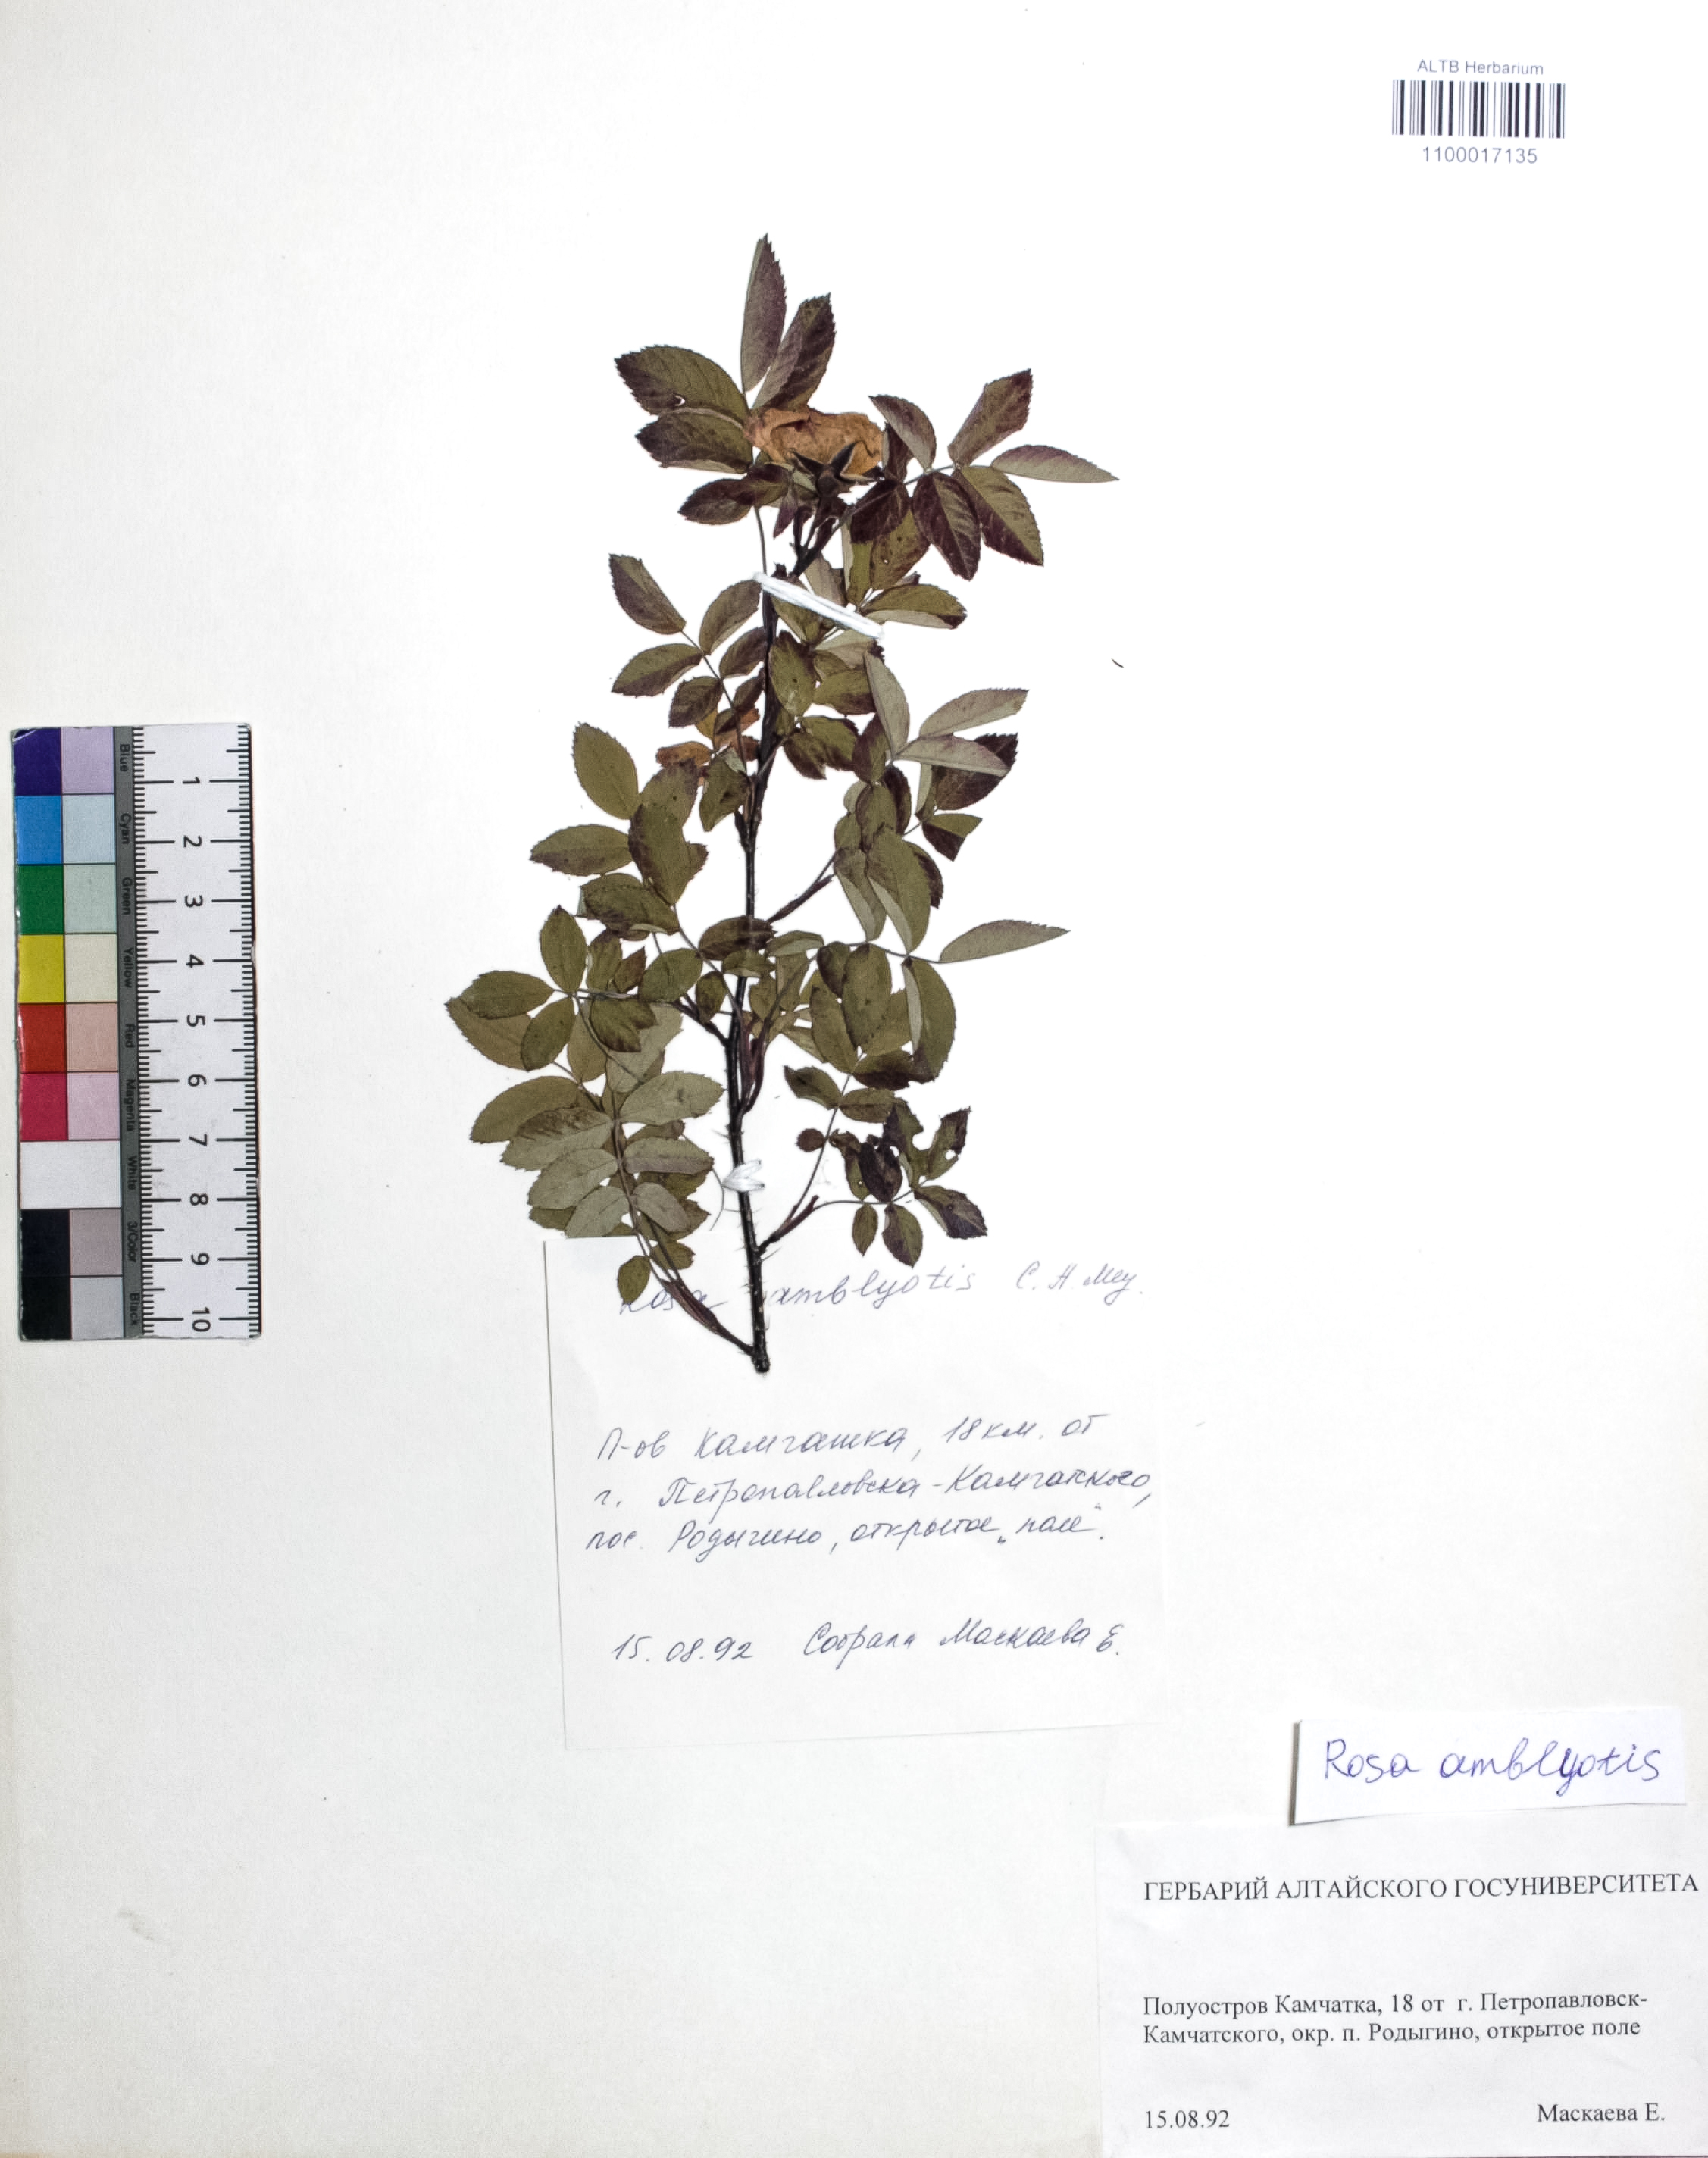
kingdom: Plantae
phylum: Tracheophyta
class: Magnoliopsida
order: Rosales
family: Rosaceae
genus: Rosa
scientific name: Rosa davurica
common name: Amur rose
